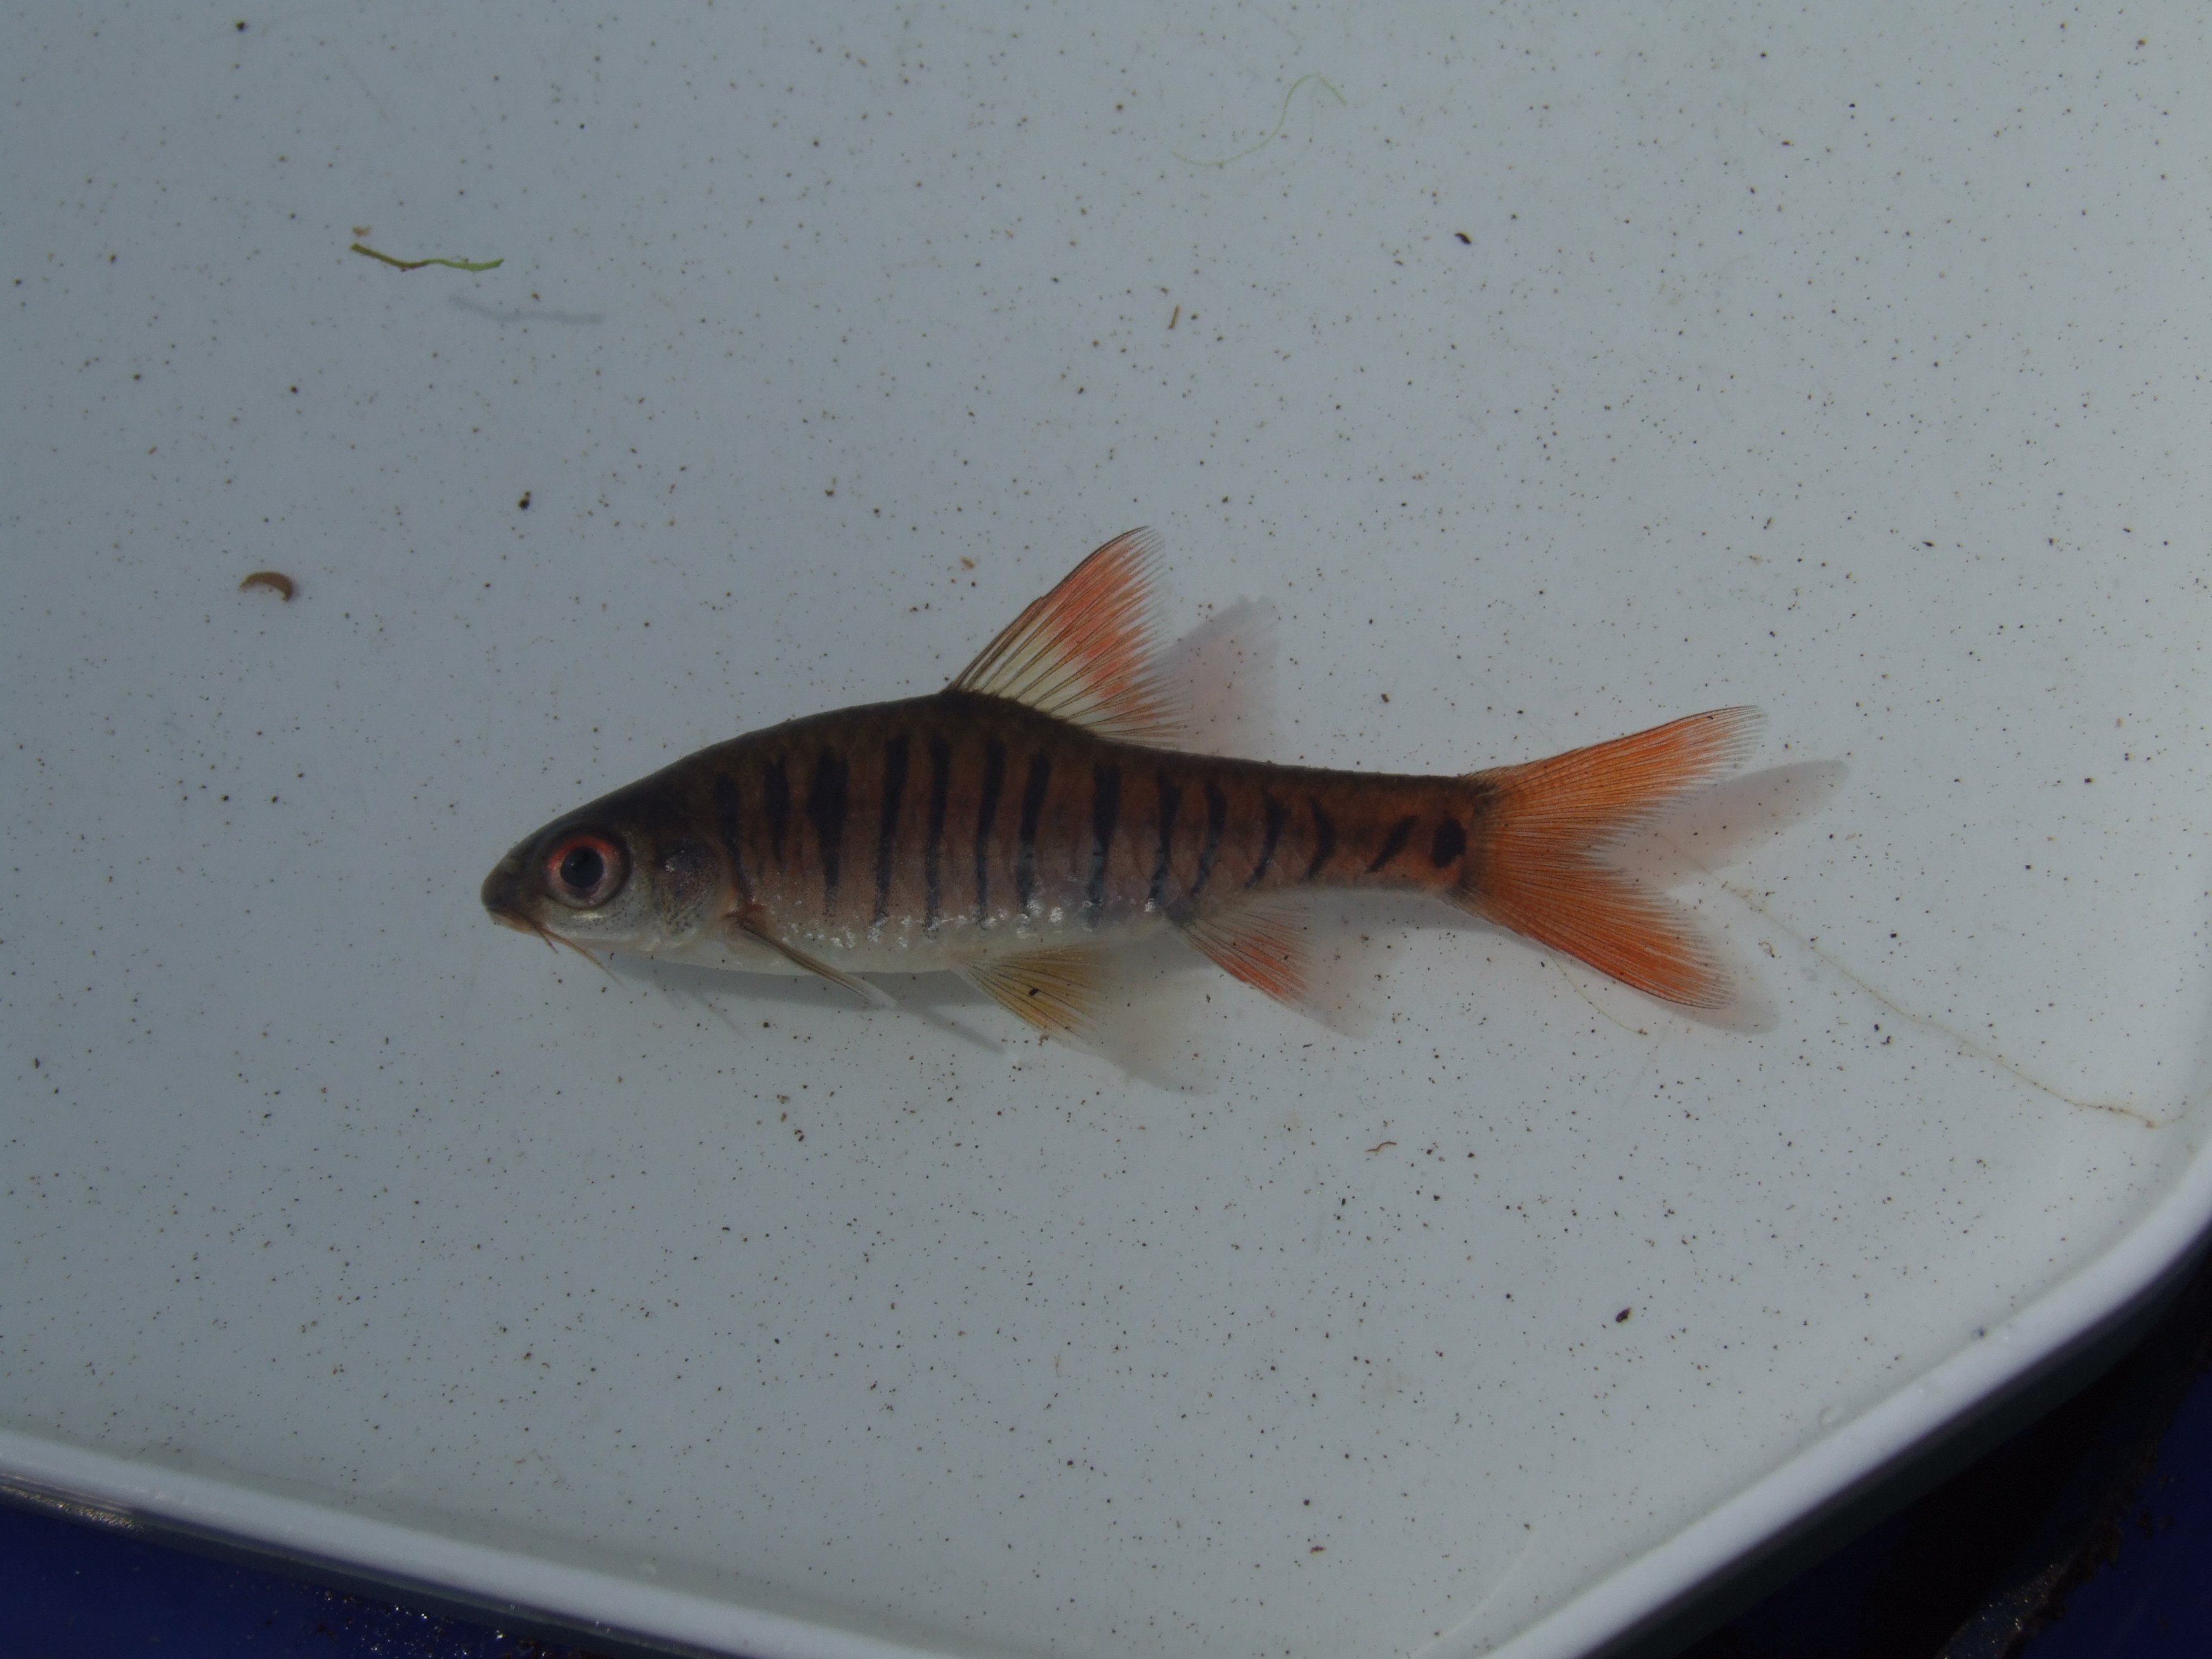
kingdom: Animalia
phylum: Chordata
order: Cypriniformes
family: Cyprinidae
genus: Enteromius
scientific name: Enteromius fasciolatus
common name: Red barb
